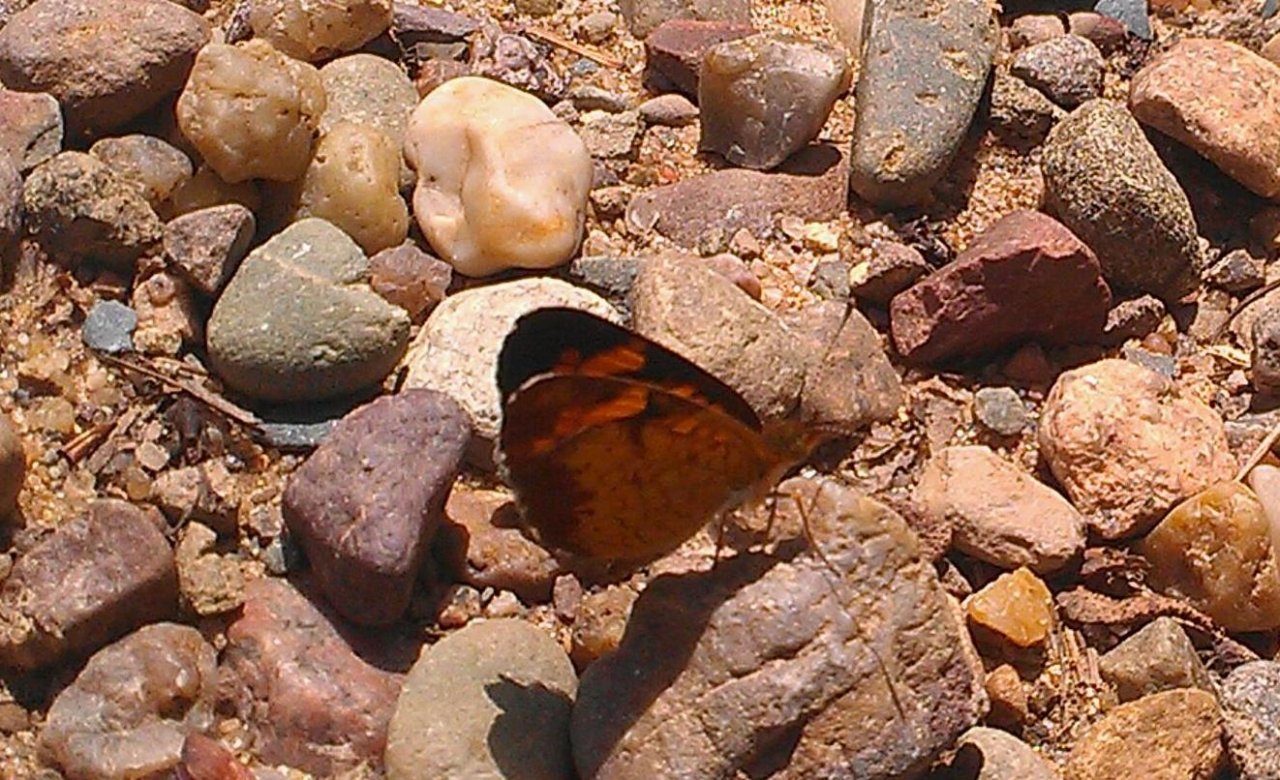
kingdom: Animalia
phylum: Arthropoda
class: Insecta
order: Lepidoptera
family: Nymphalidae
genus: Phyciodes
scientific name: Phyciodes tharos
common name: Northern Crescent
